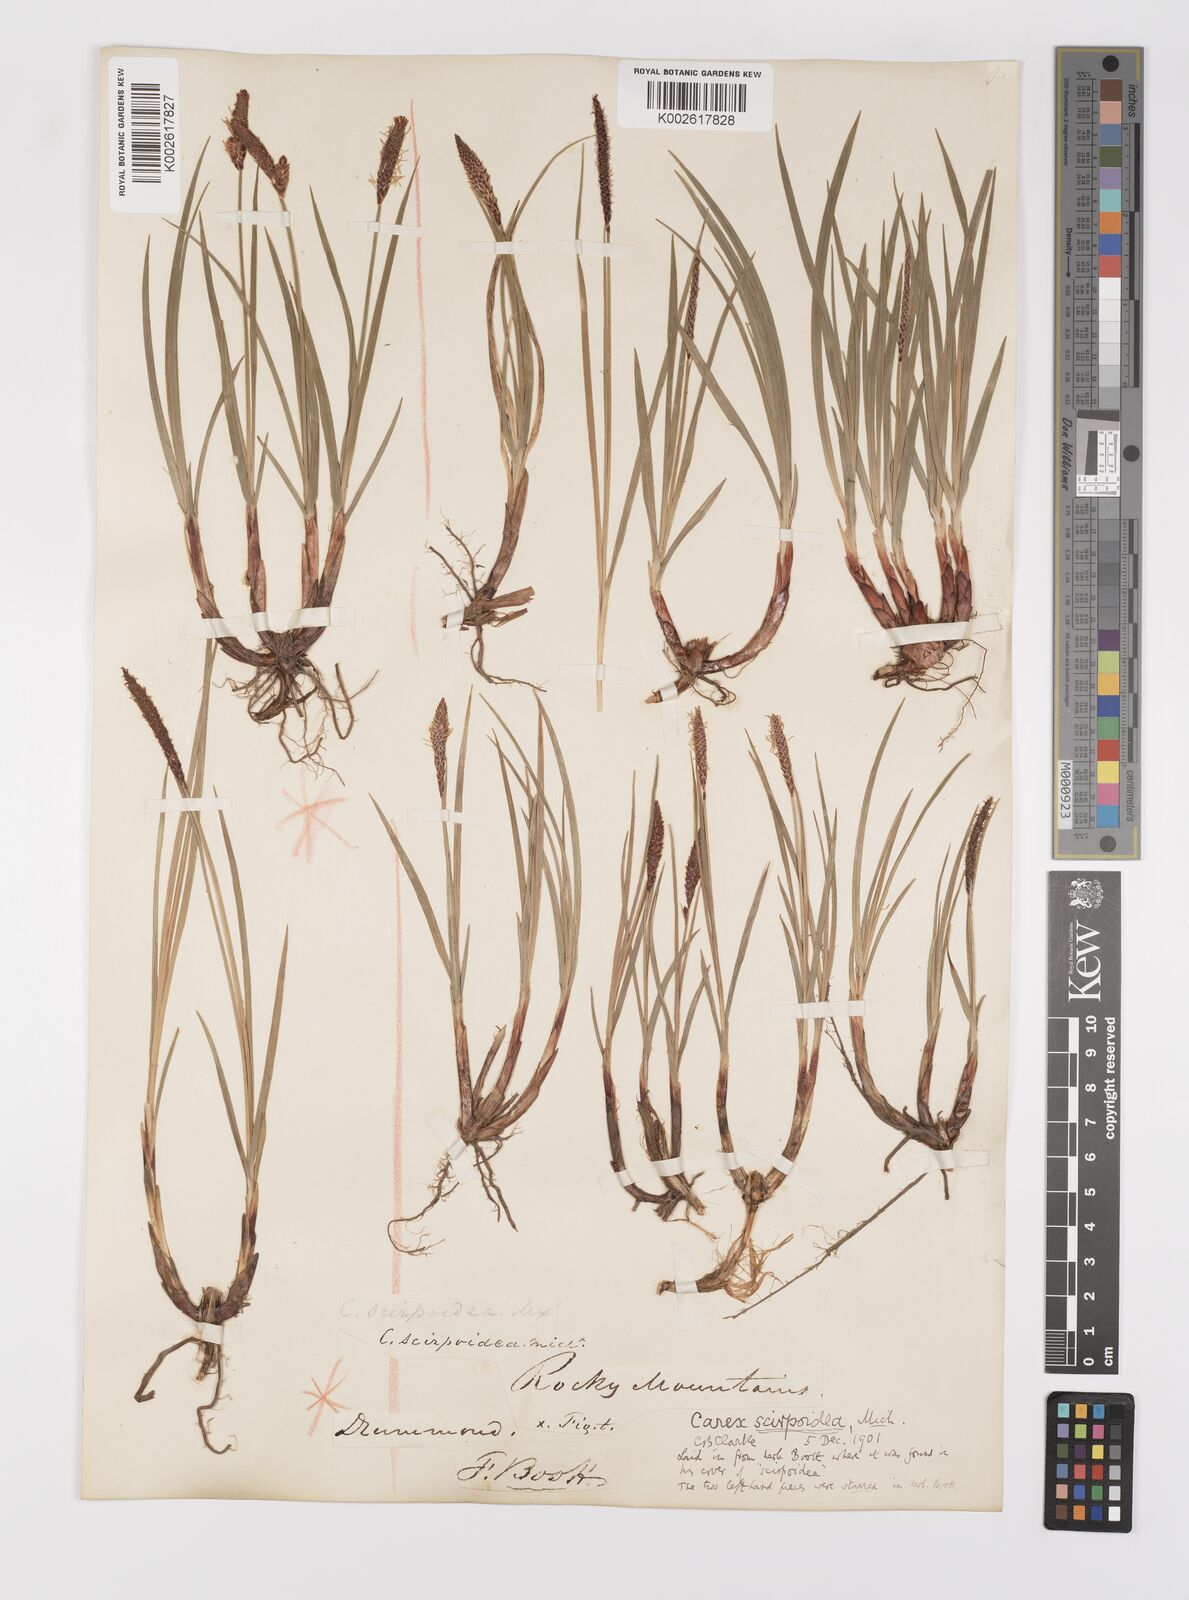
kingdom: Plantae
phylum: Tracheophyta
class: Liliopsida
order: Poales
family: Cyperaceae
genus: Carex
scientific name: Carex scirpoidea
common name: Canada single-spike sedge
